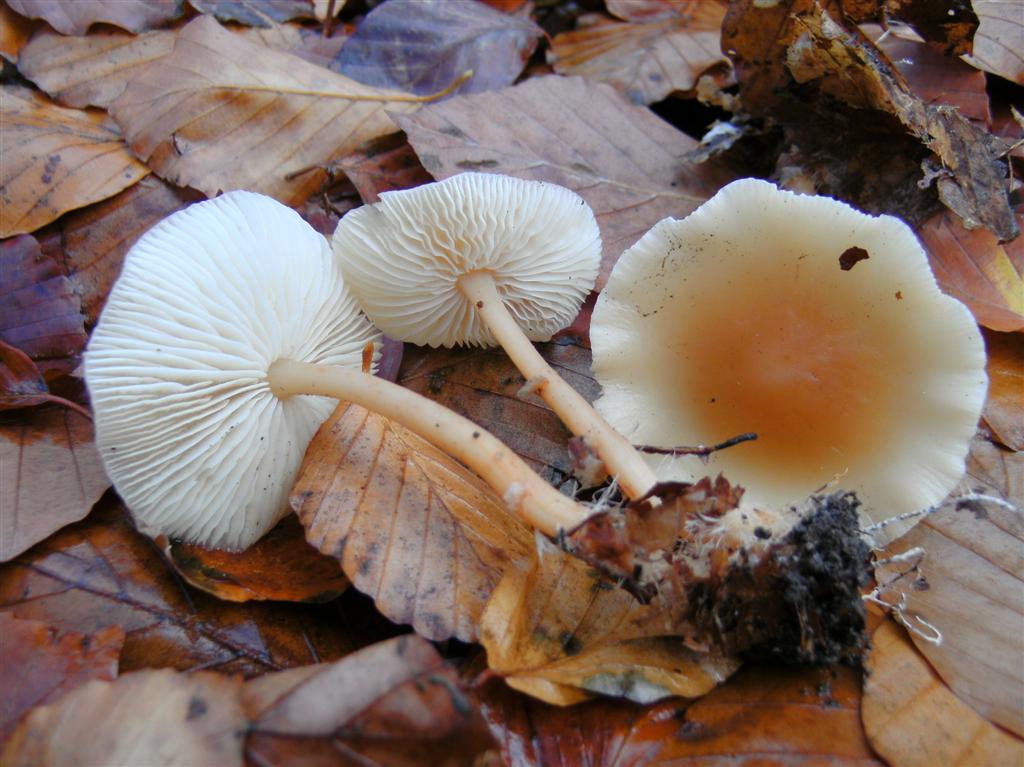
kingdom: Fungi
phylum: Basidiomycota
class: Agaricomycetes
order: Agaricales
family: Omphalotaceae
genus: Gymnopus
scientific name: Gymnopus dryophilus
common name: løv-fladhat
